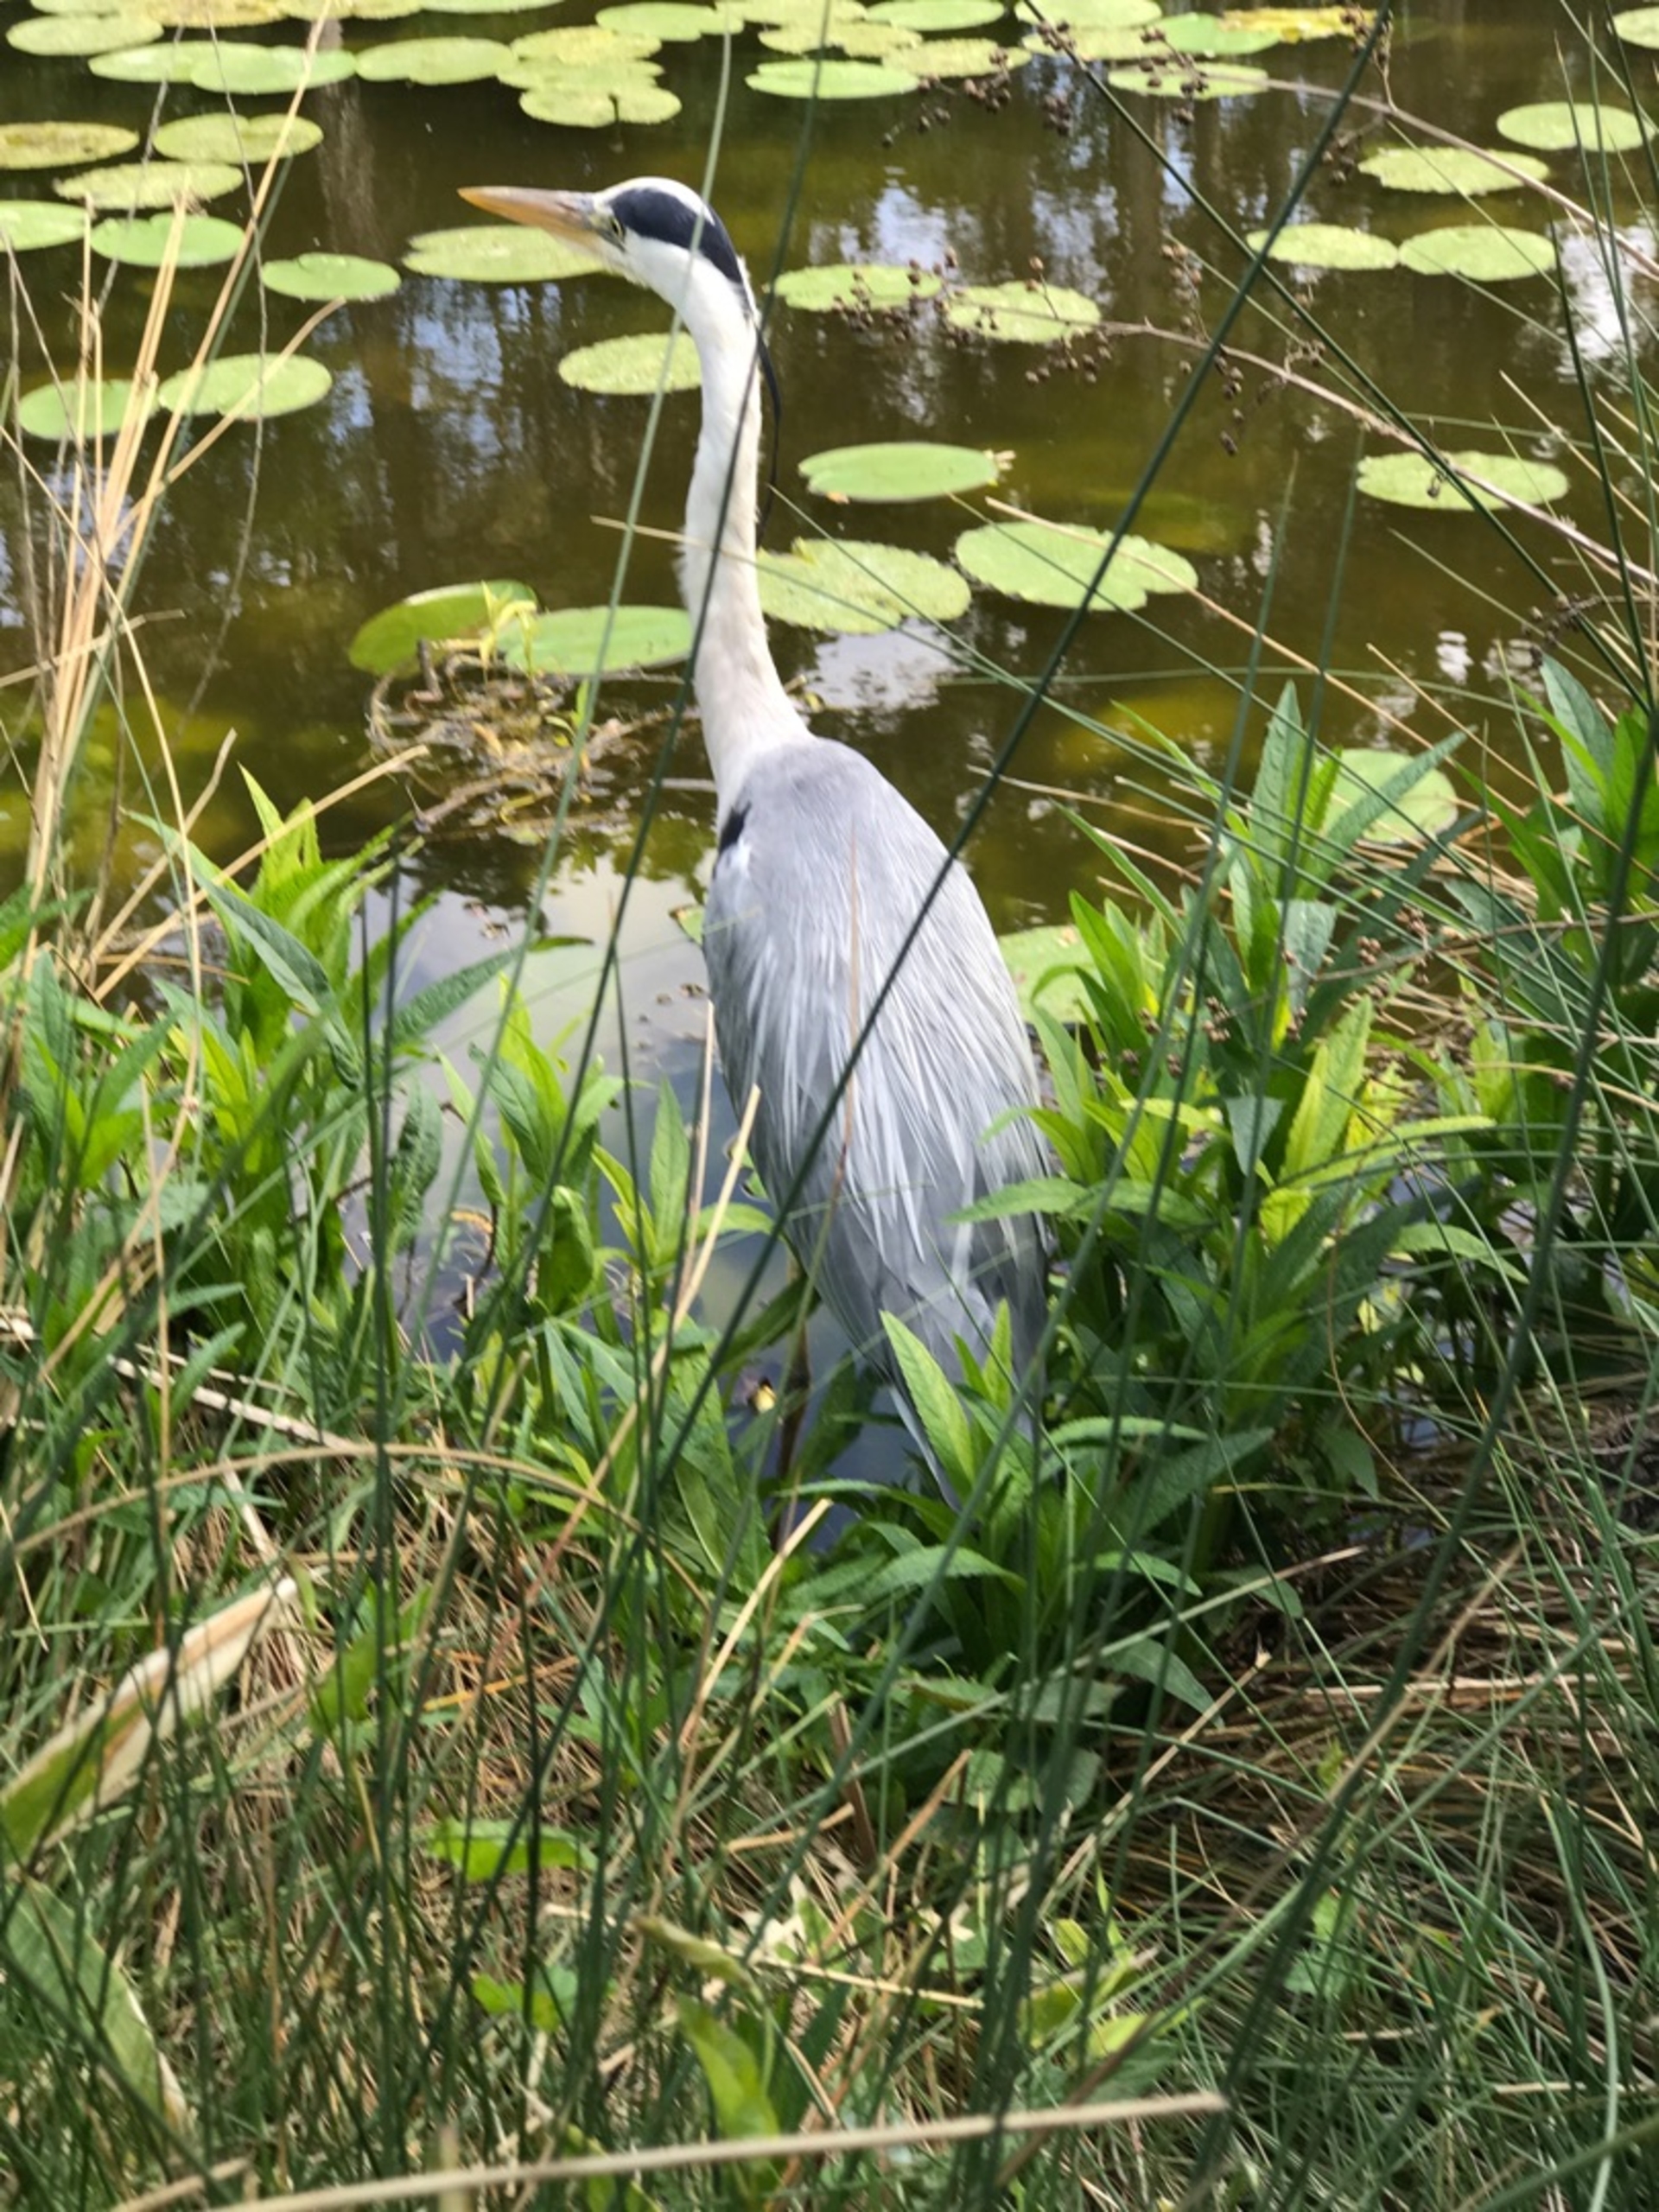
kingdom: Animalia
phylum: Chordata
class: Aves
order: Pelecaniformes
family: Ardeidae
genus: Ardea
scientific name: Ardea cinerea
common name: Fiskehejre
